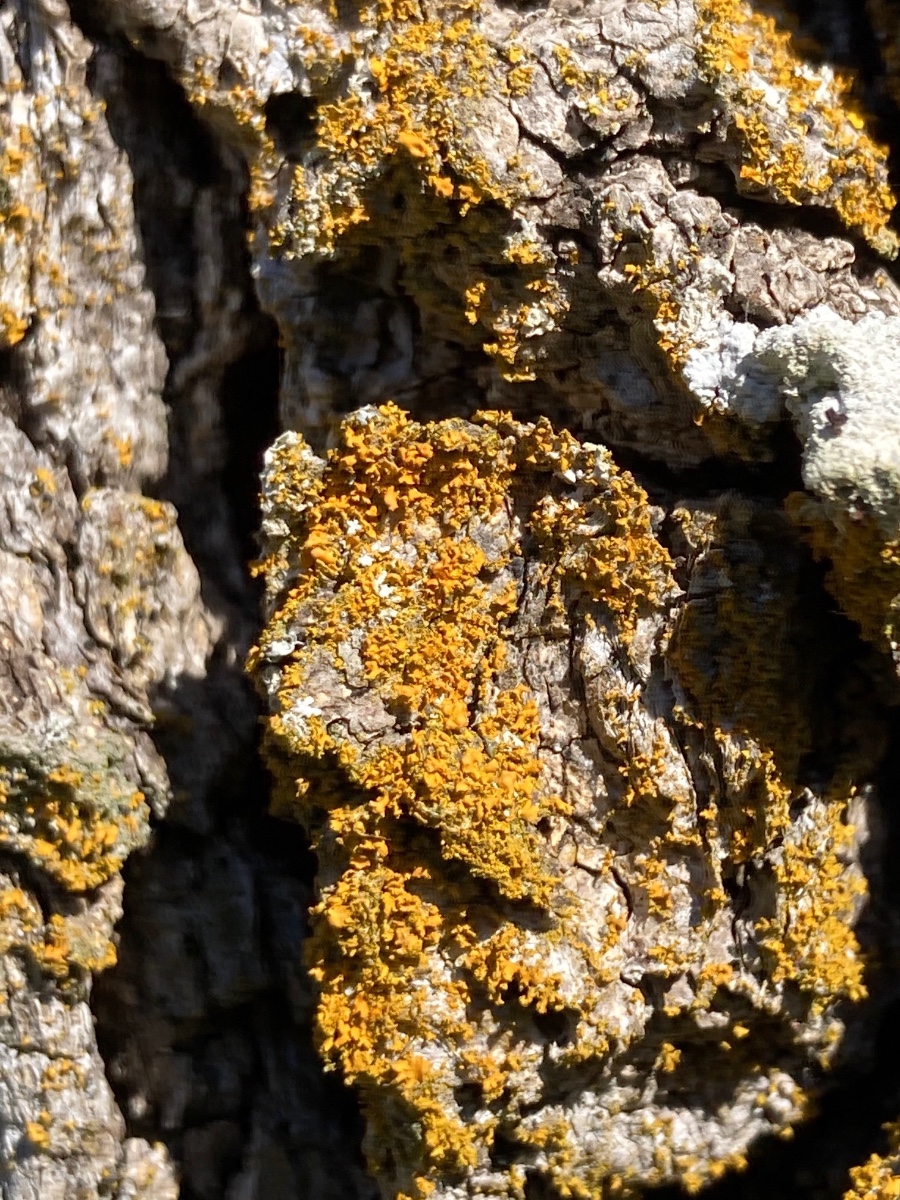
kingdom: Fungi
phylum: Ascomycota
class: Lecanoromycetes
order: Teloschistales
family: Teloschistaceae
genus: Polycauliona
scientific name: Polycauliona ucrainica
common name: småbladet orangelav
